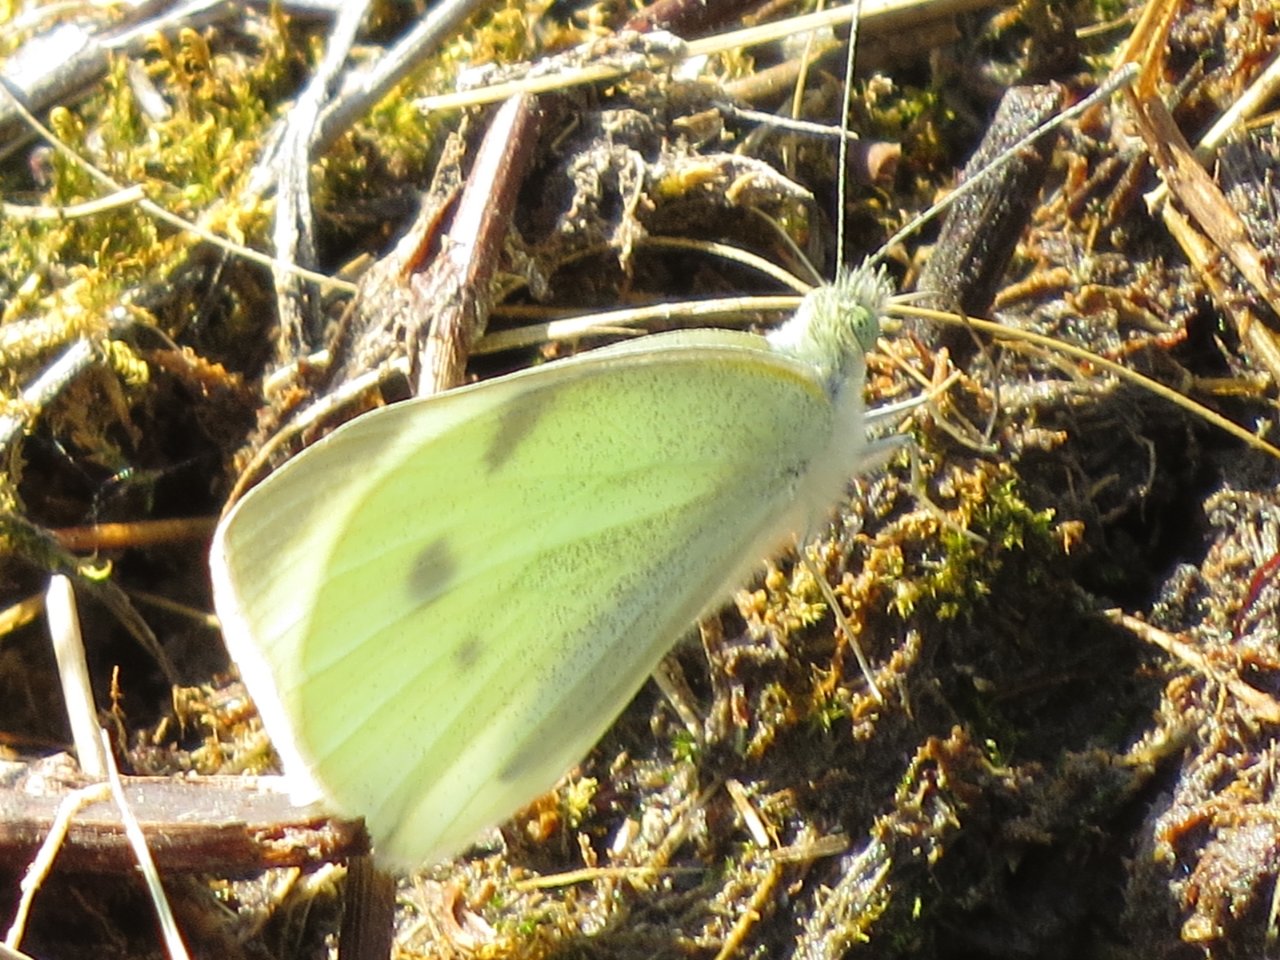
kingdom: Animalia
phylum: Arthropoda
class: Insecta
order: Lepidoptera
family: Pieridae
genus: Pieris
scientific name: Pieris rapae
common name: Cabbage White
